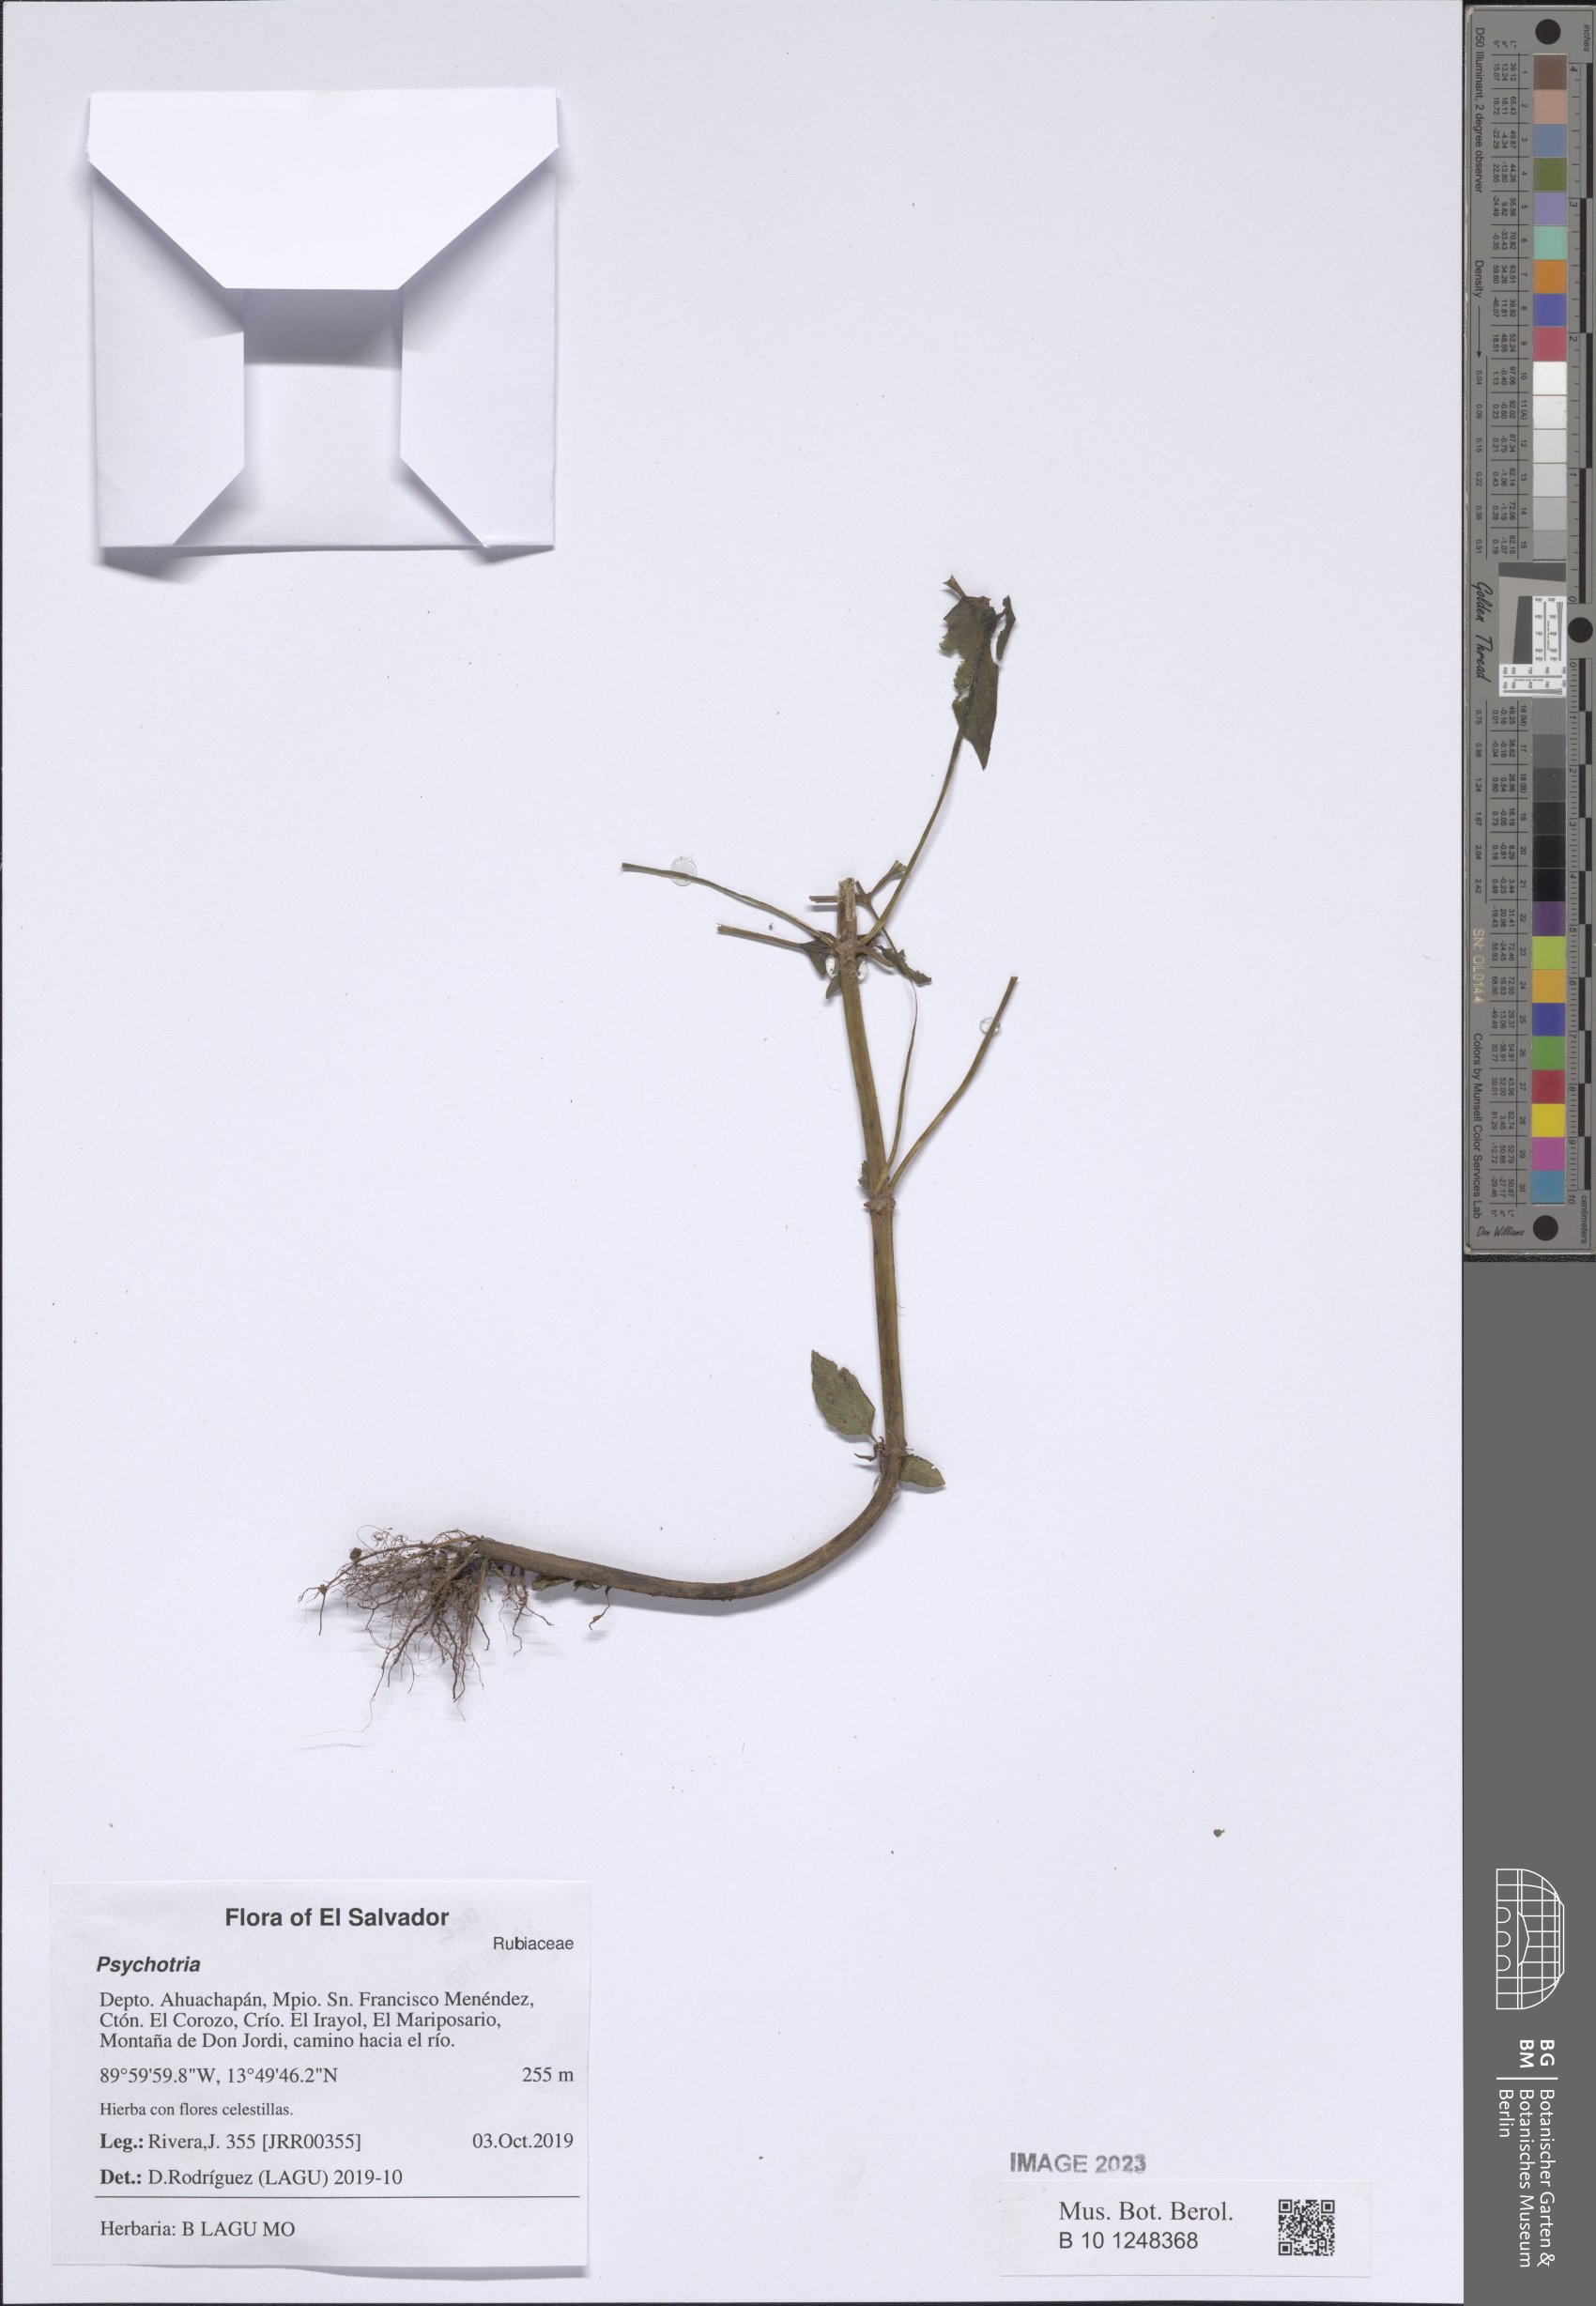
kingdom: Plantae
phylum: Tracheophyta
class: Magnoliopsida
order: Gentianales
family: Rubiaceae
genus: Psychotria
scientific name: Psychotria
